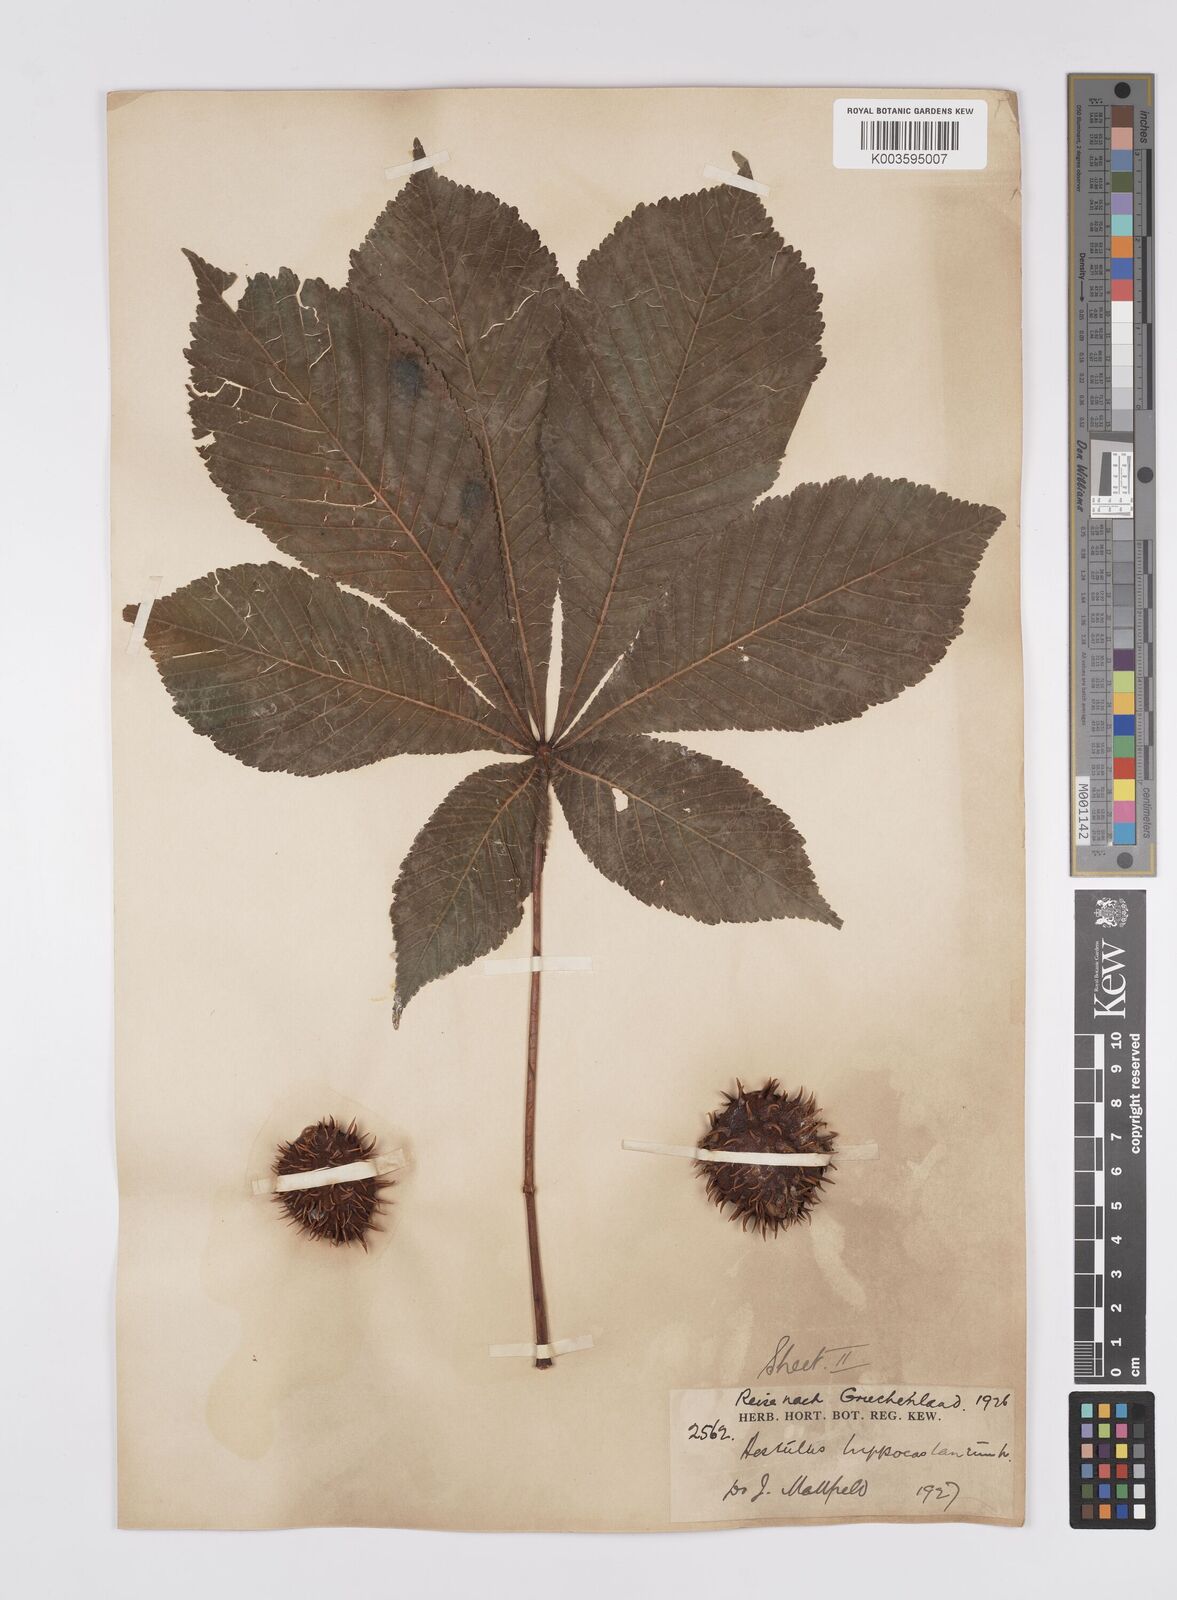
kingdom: Plantae
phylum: Tracheophyta
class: Magnoliopsida
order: Sapindales
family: Sapindaceae
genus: Aesculus
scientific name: Aesculus hippocastanum
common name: Horse-chestnut
